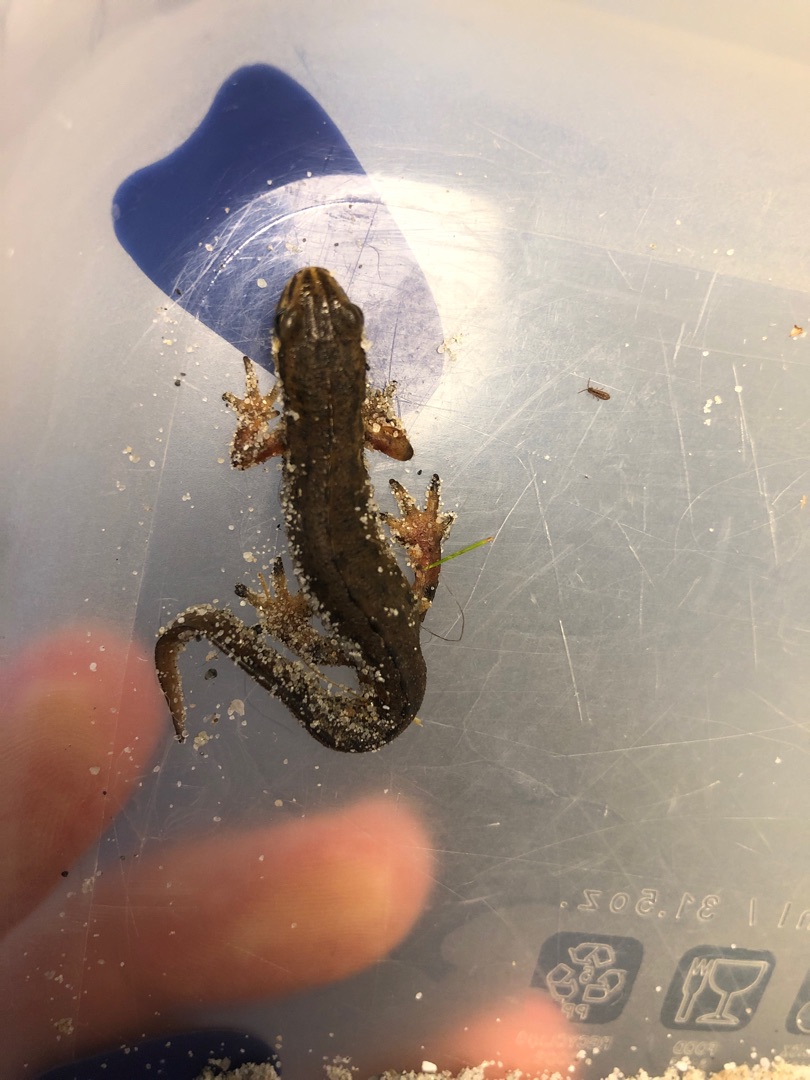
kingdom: Animalia
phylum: Chordata
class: Amphibia
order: Caudata
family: Salamandridae
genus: Lissotriton
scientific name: Lissotriton vulgaris
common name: Lille vandsalamander
